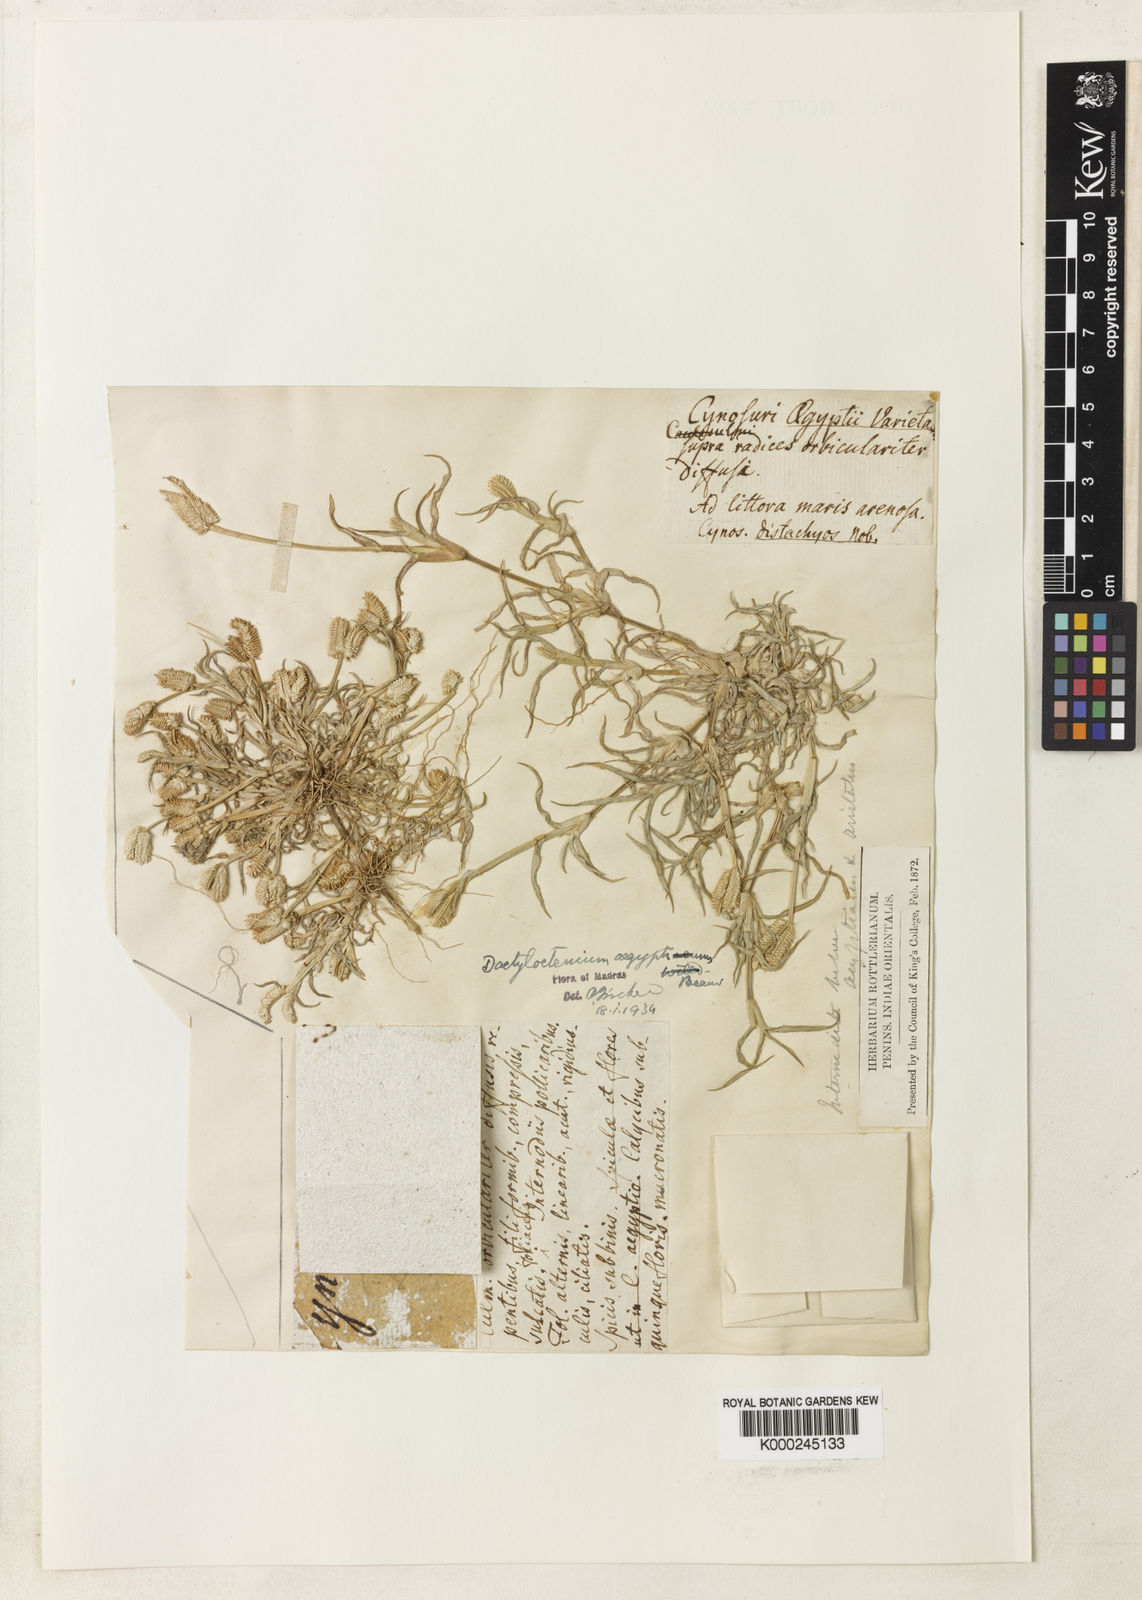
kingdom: Plantae
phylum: Tracheophyta
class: Magnoliopsida
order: Lamiales
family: Lamiaceae
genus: Salvia
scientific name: Salvia fruticosa
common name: Greek sage
